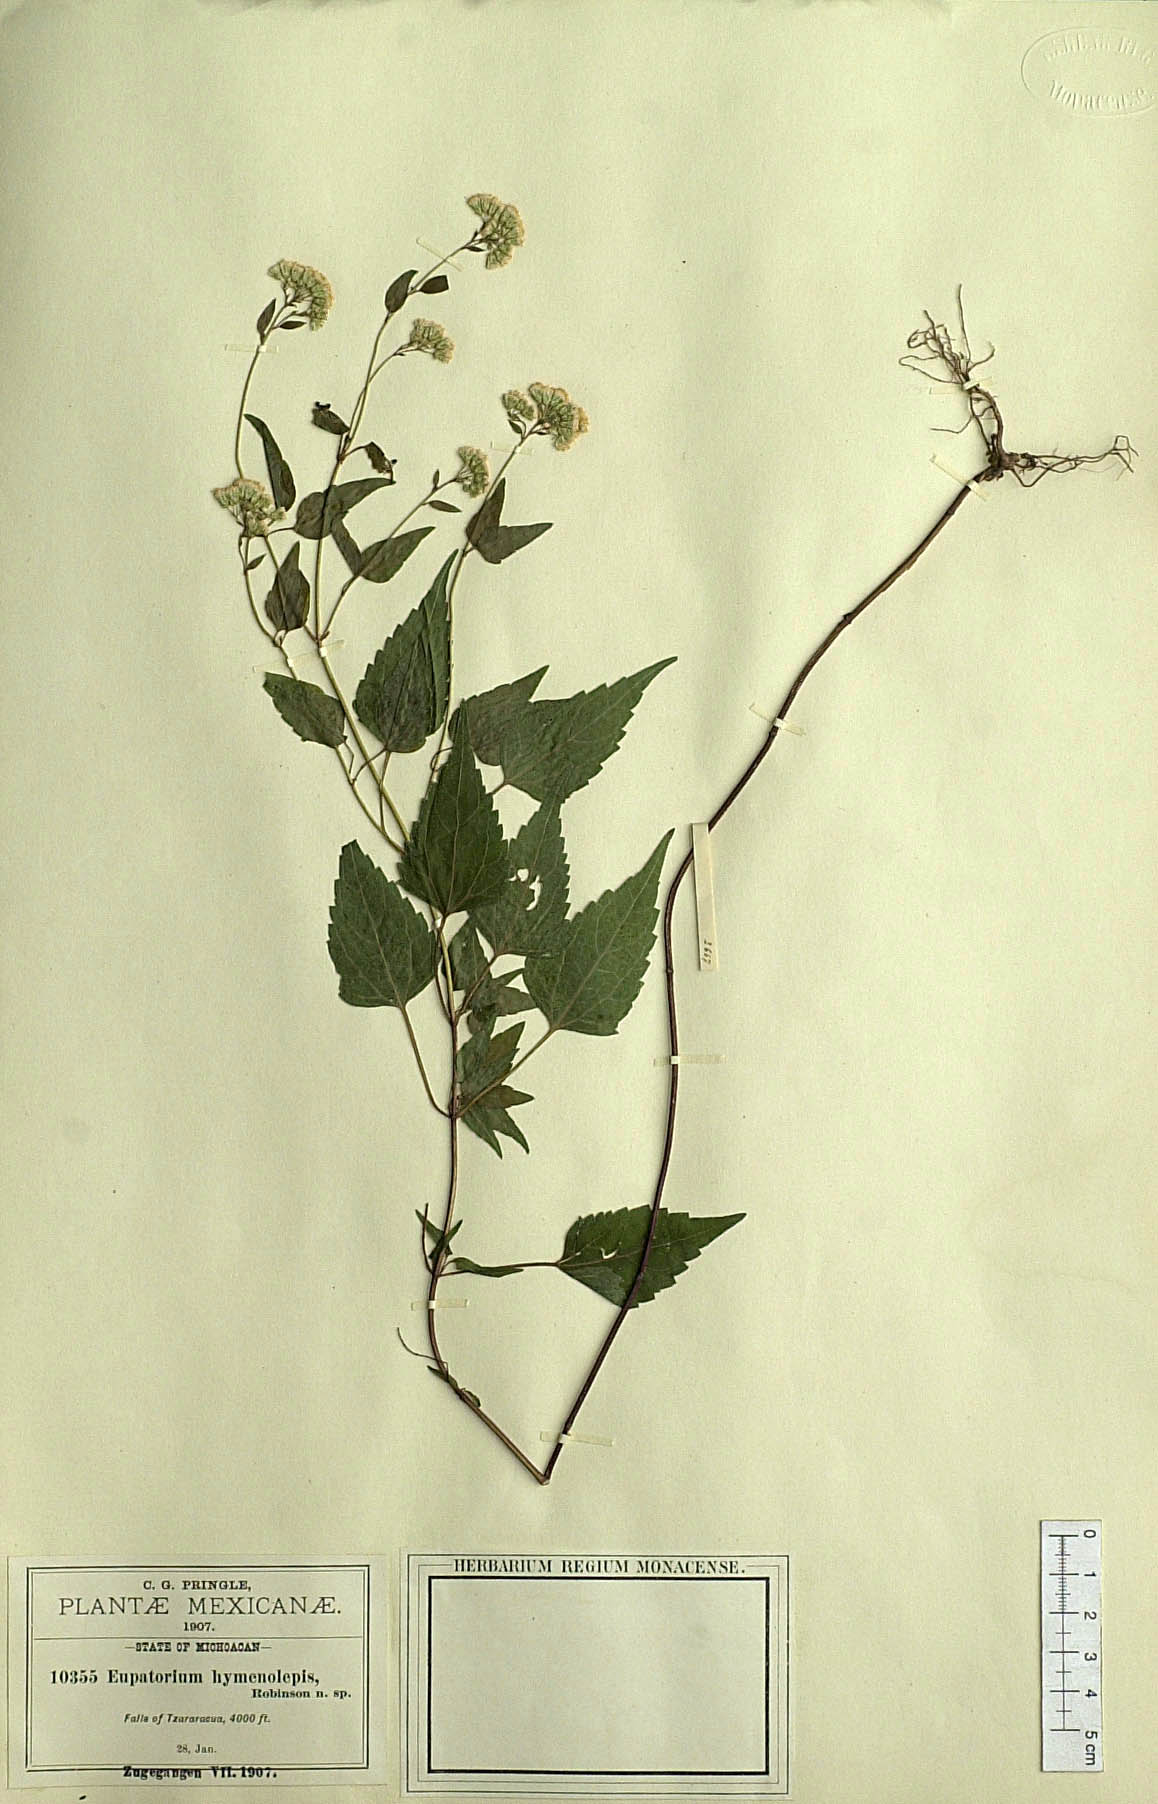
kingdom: Plantae
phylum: Tracheophyta
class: Magnoliopsida
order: Asterales
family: Asteraceae
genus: Fleischmannia
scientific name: Fleischmannia sonorae
